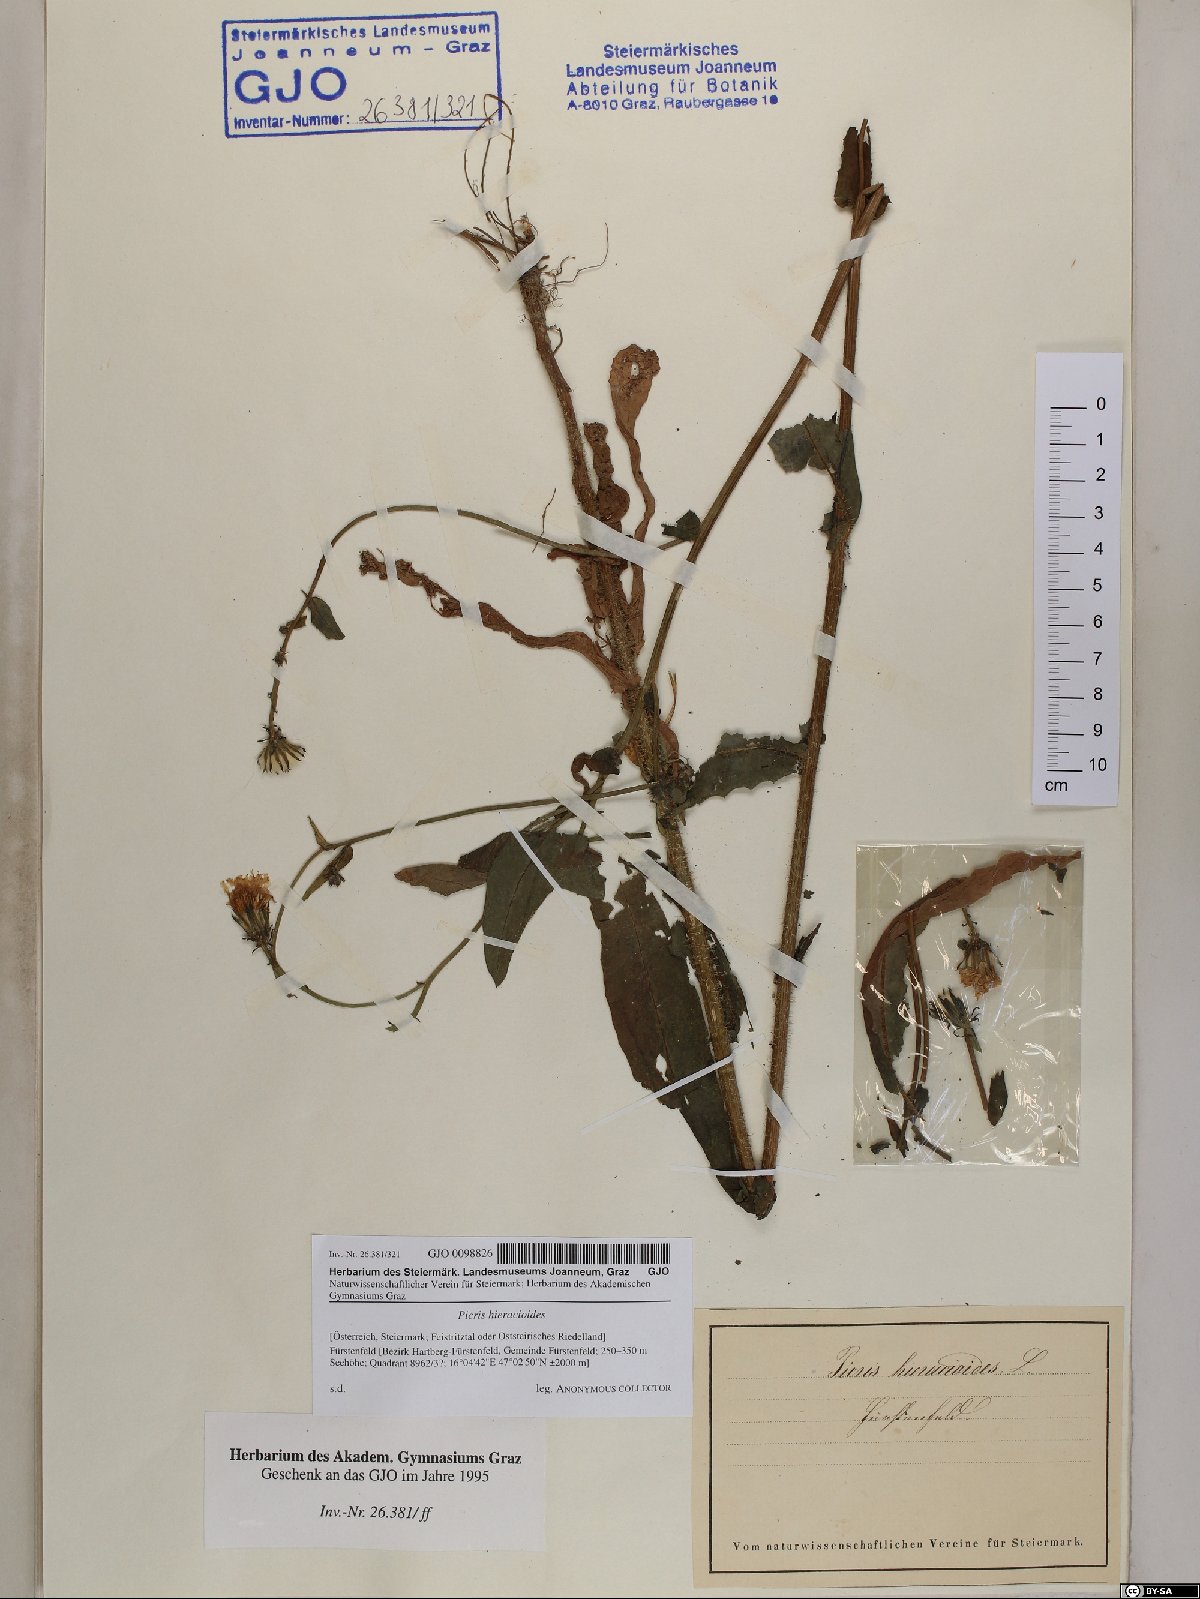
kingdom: Plantae
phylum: Tracheophyta
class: Magnoliopsida
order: Asterales
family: Asteraceae
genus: Picris
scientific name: Picris hieracioides
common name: Hawkweed oxtongue
